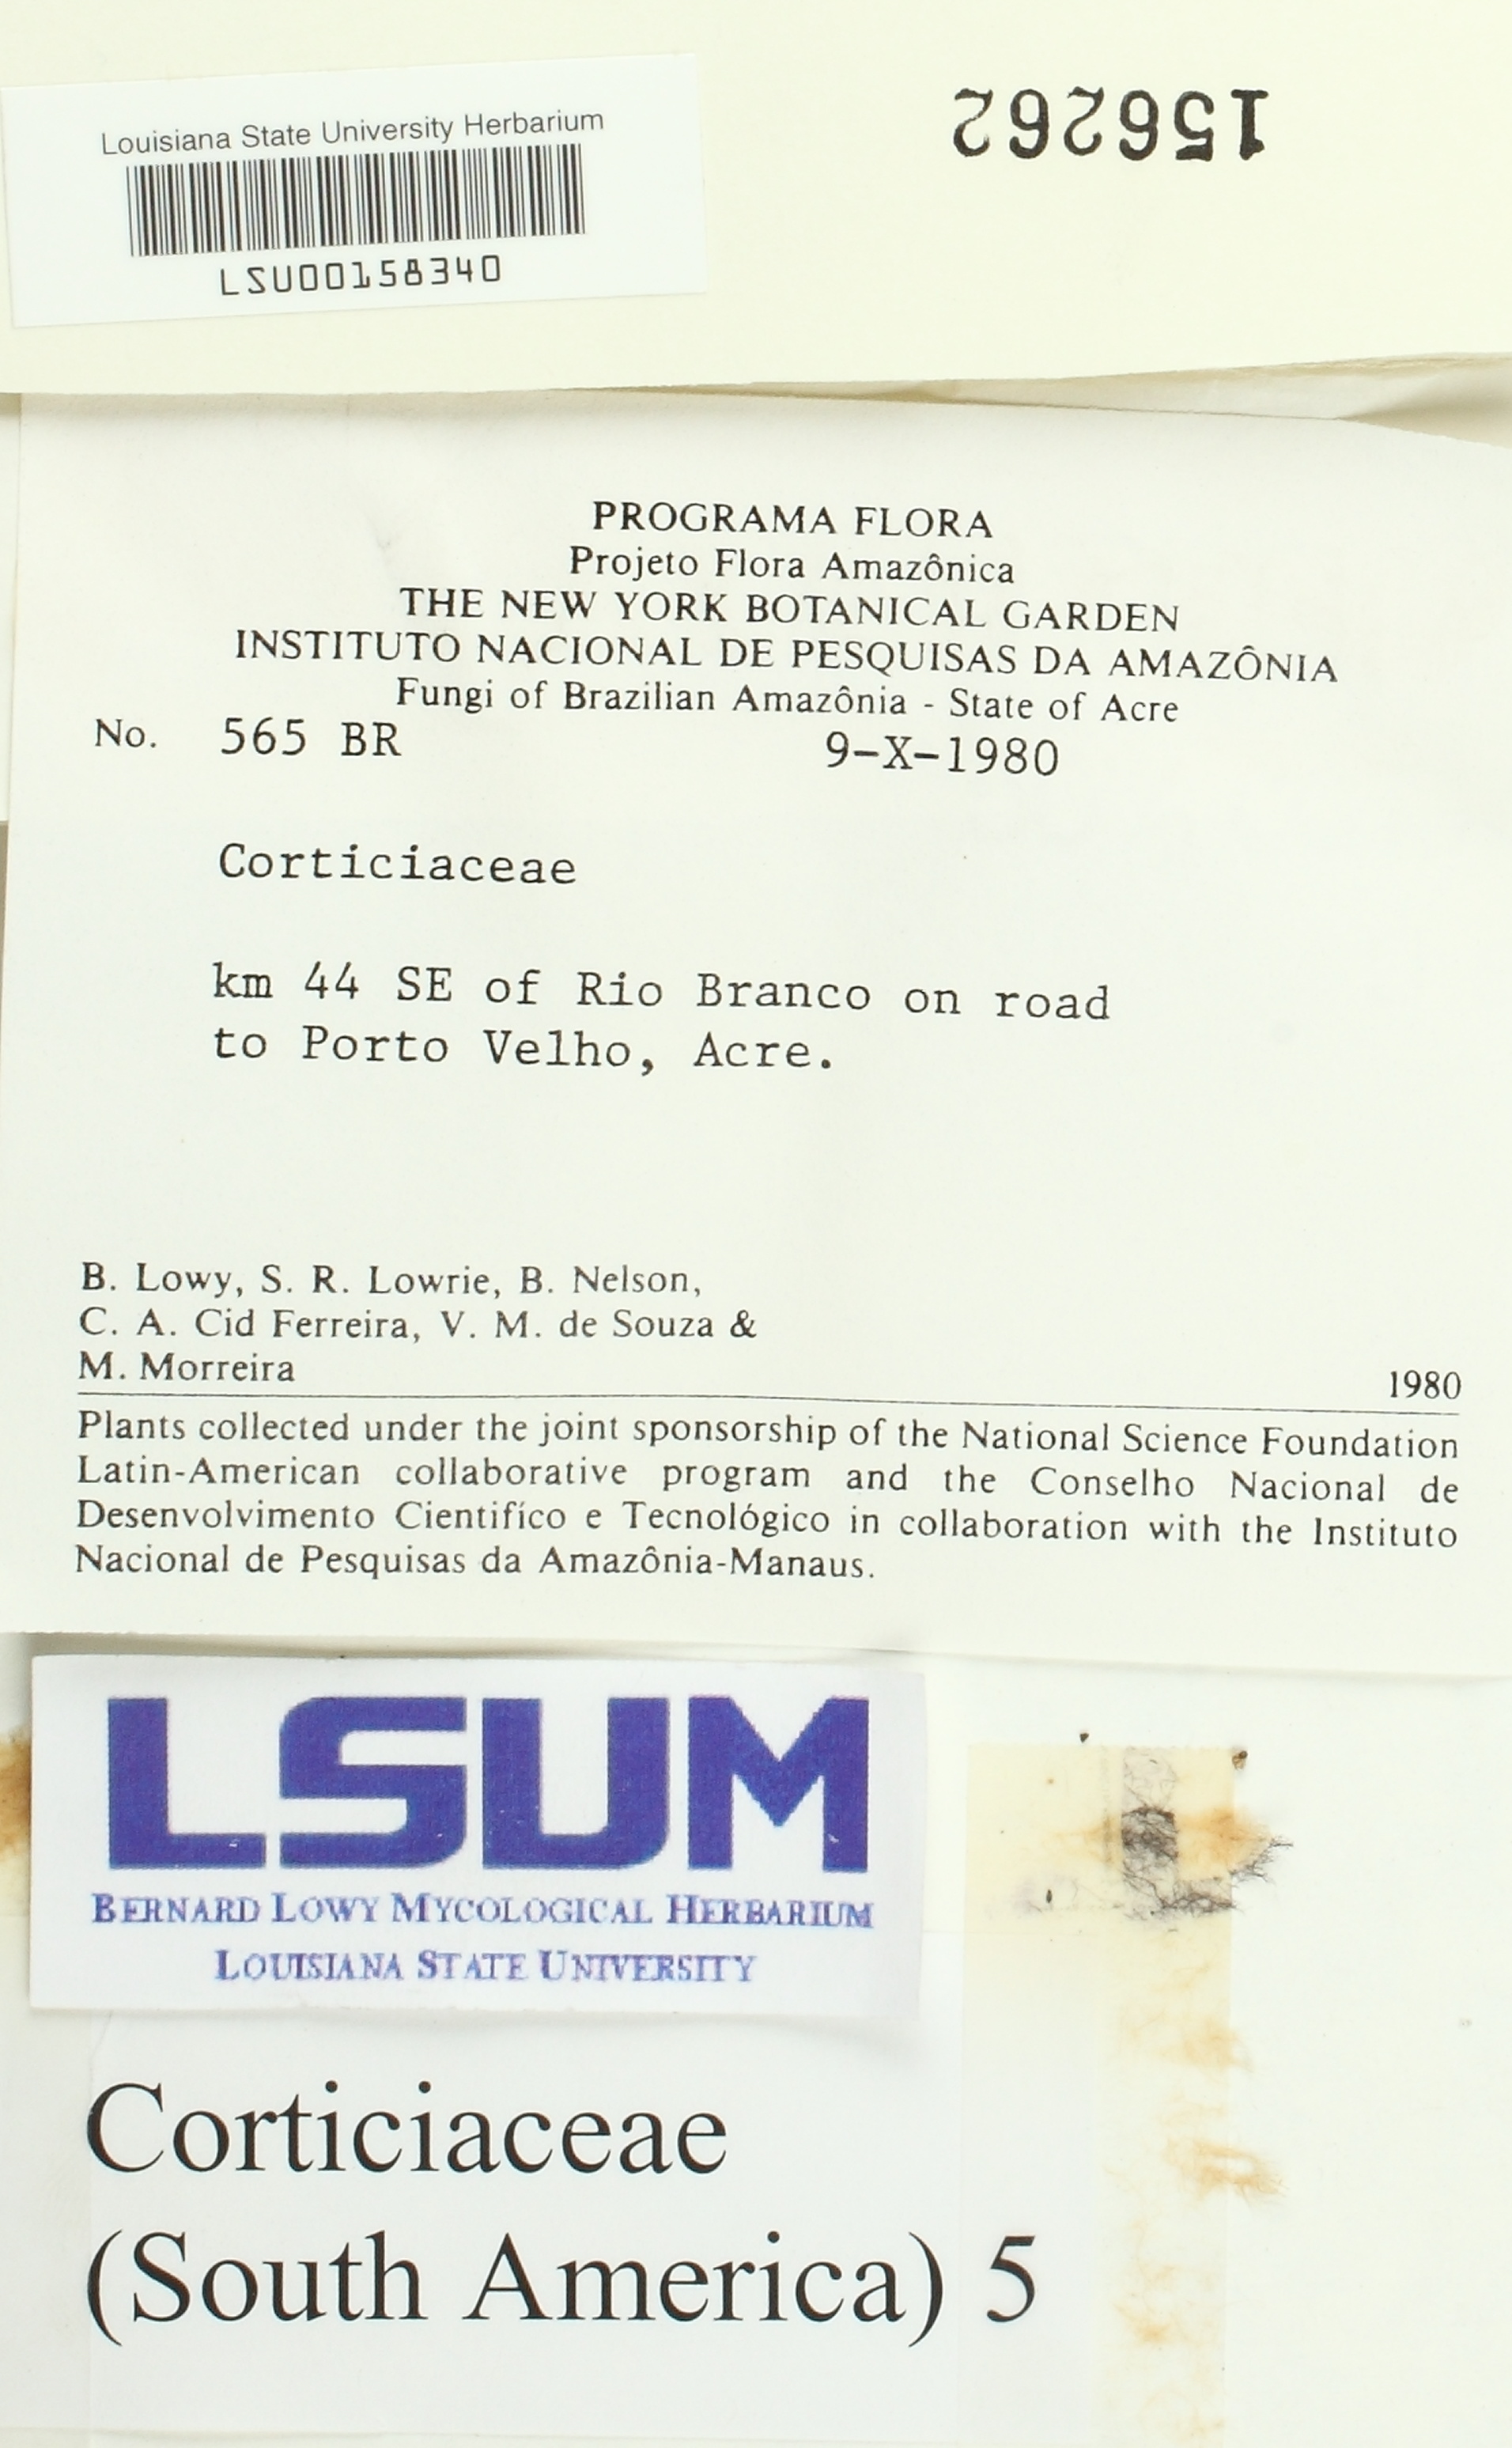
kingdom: Fungi
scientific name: Fungi
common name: Fungi
